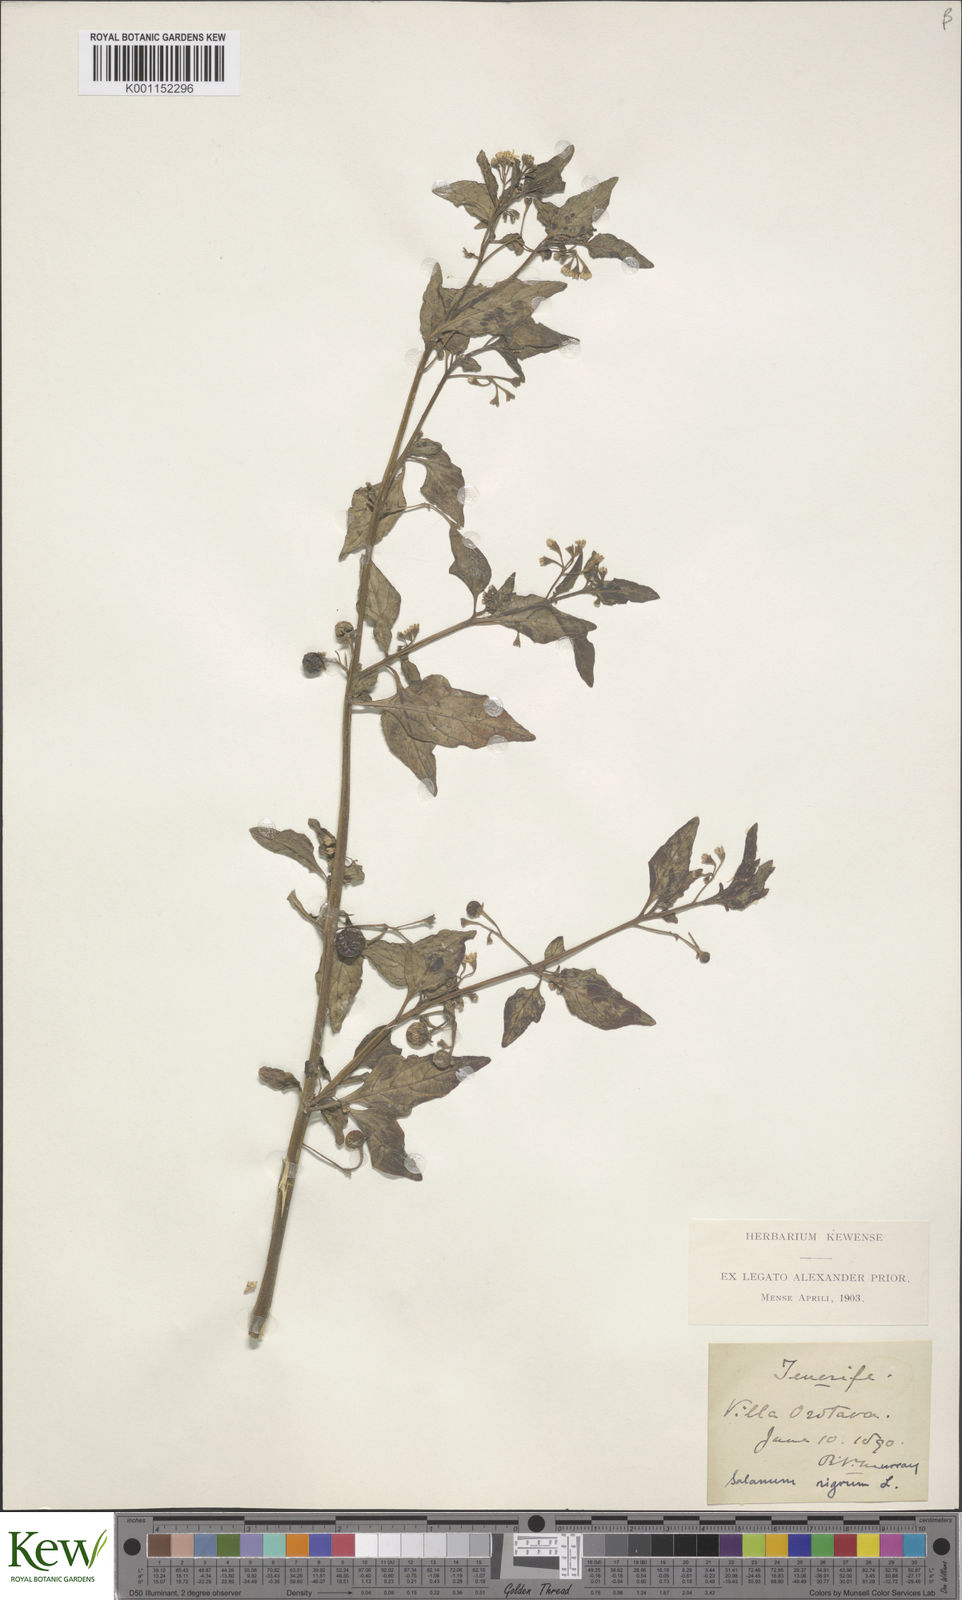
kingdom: Plantae
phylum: Tracheophyta
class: Magnoliopsida
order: Solanales
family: Solanaceae
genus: Solanum
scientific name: Solanum nigrum
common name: Black nightshade
